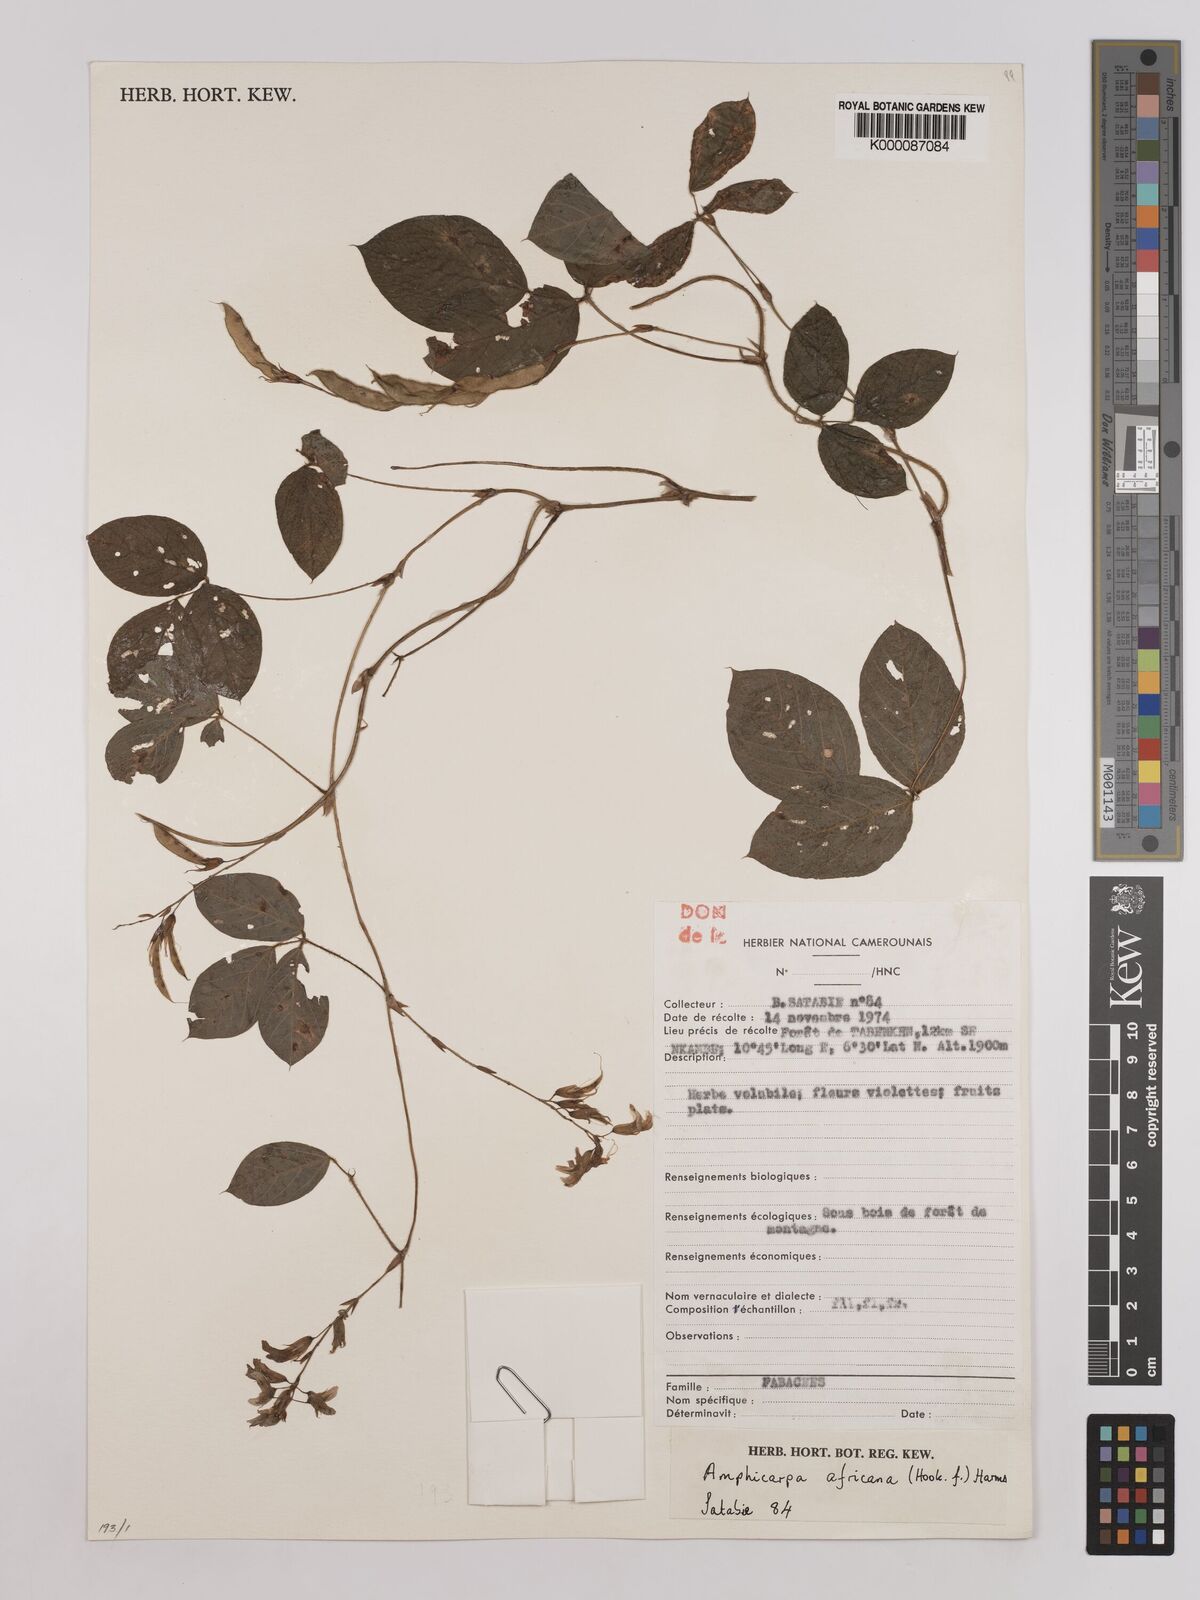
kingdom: Plantae
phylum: Tracheophyta
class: Magnoliopsida
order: Fabales
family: Fabaceae
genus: Afroamphica
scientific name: Afroamphica africana
